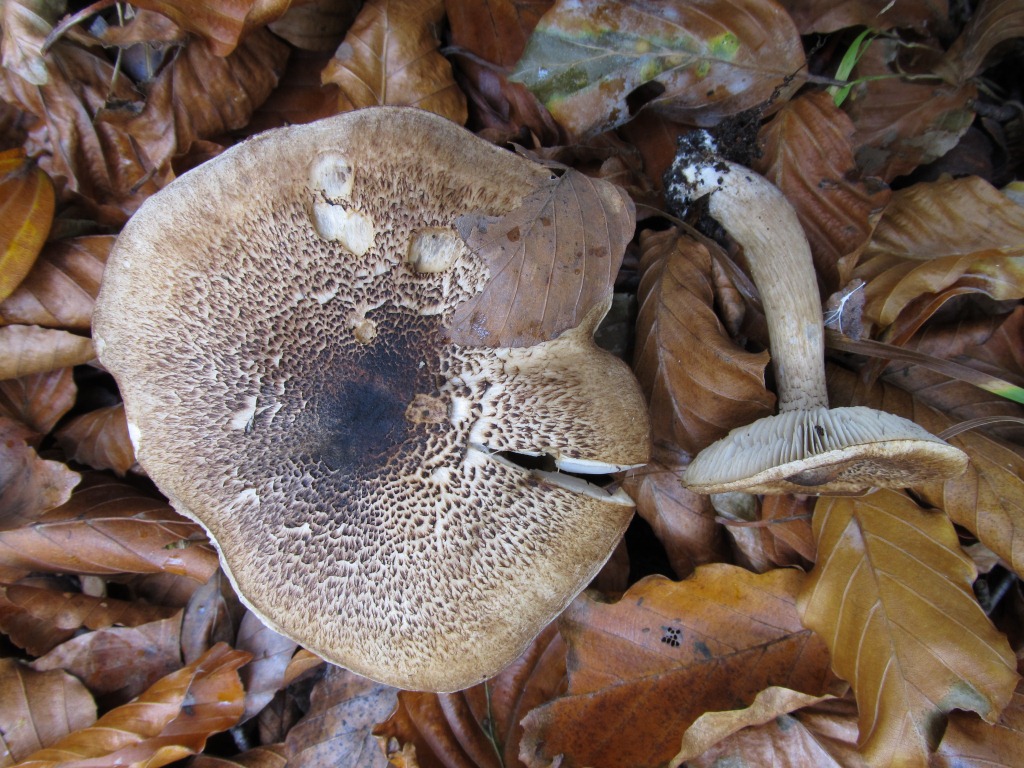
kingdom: Fungi
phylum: Basidiomycota
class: Agaricomycetes
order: Agaricales
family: Tricholomataceae
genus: Tricholoma
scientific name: Tricholoma atrosquamosum
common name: sortskællet ridderhat
